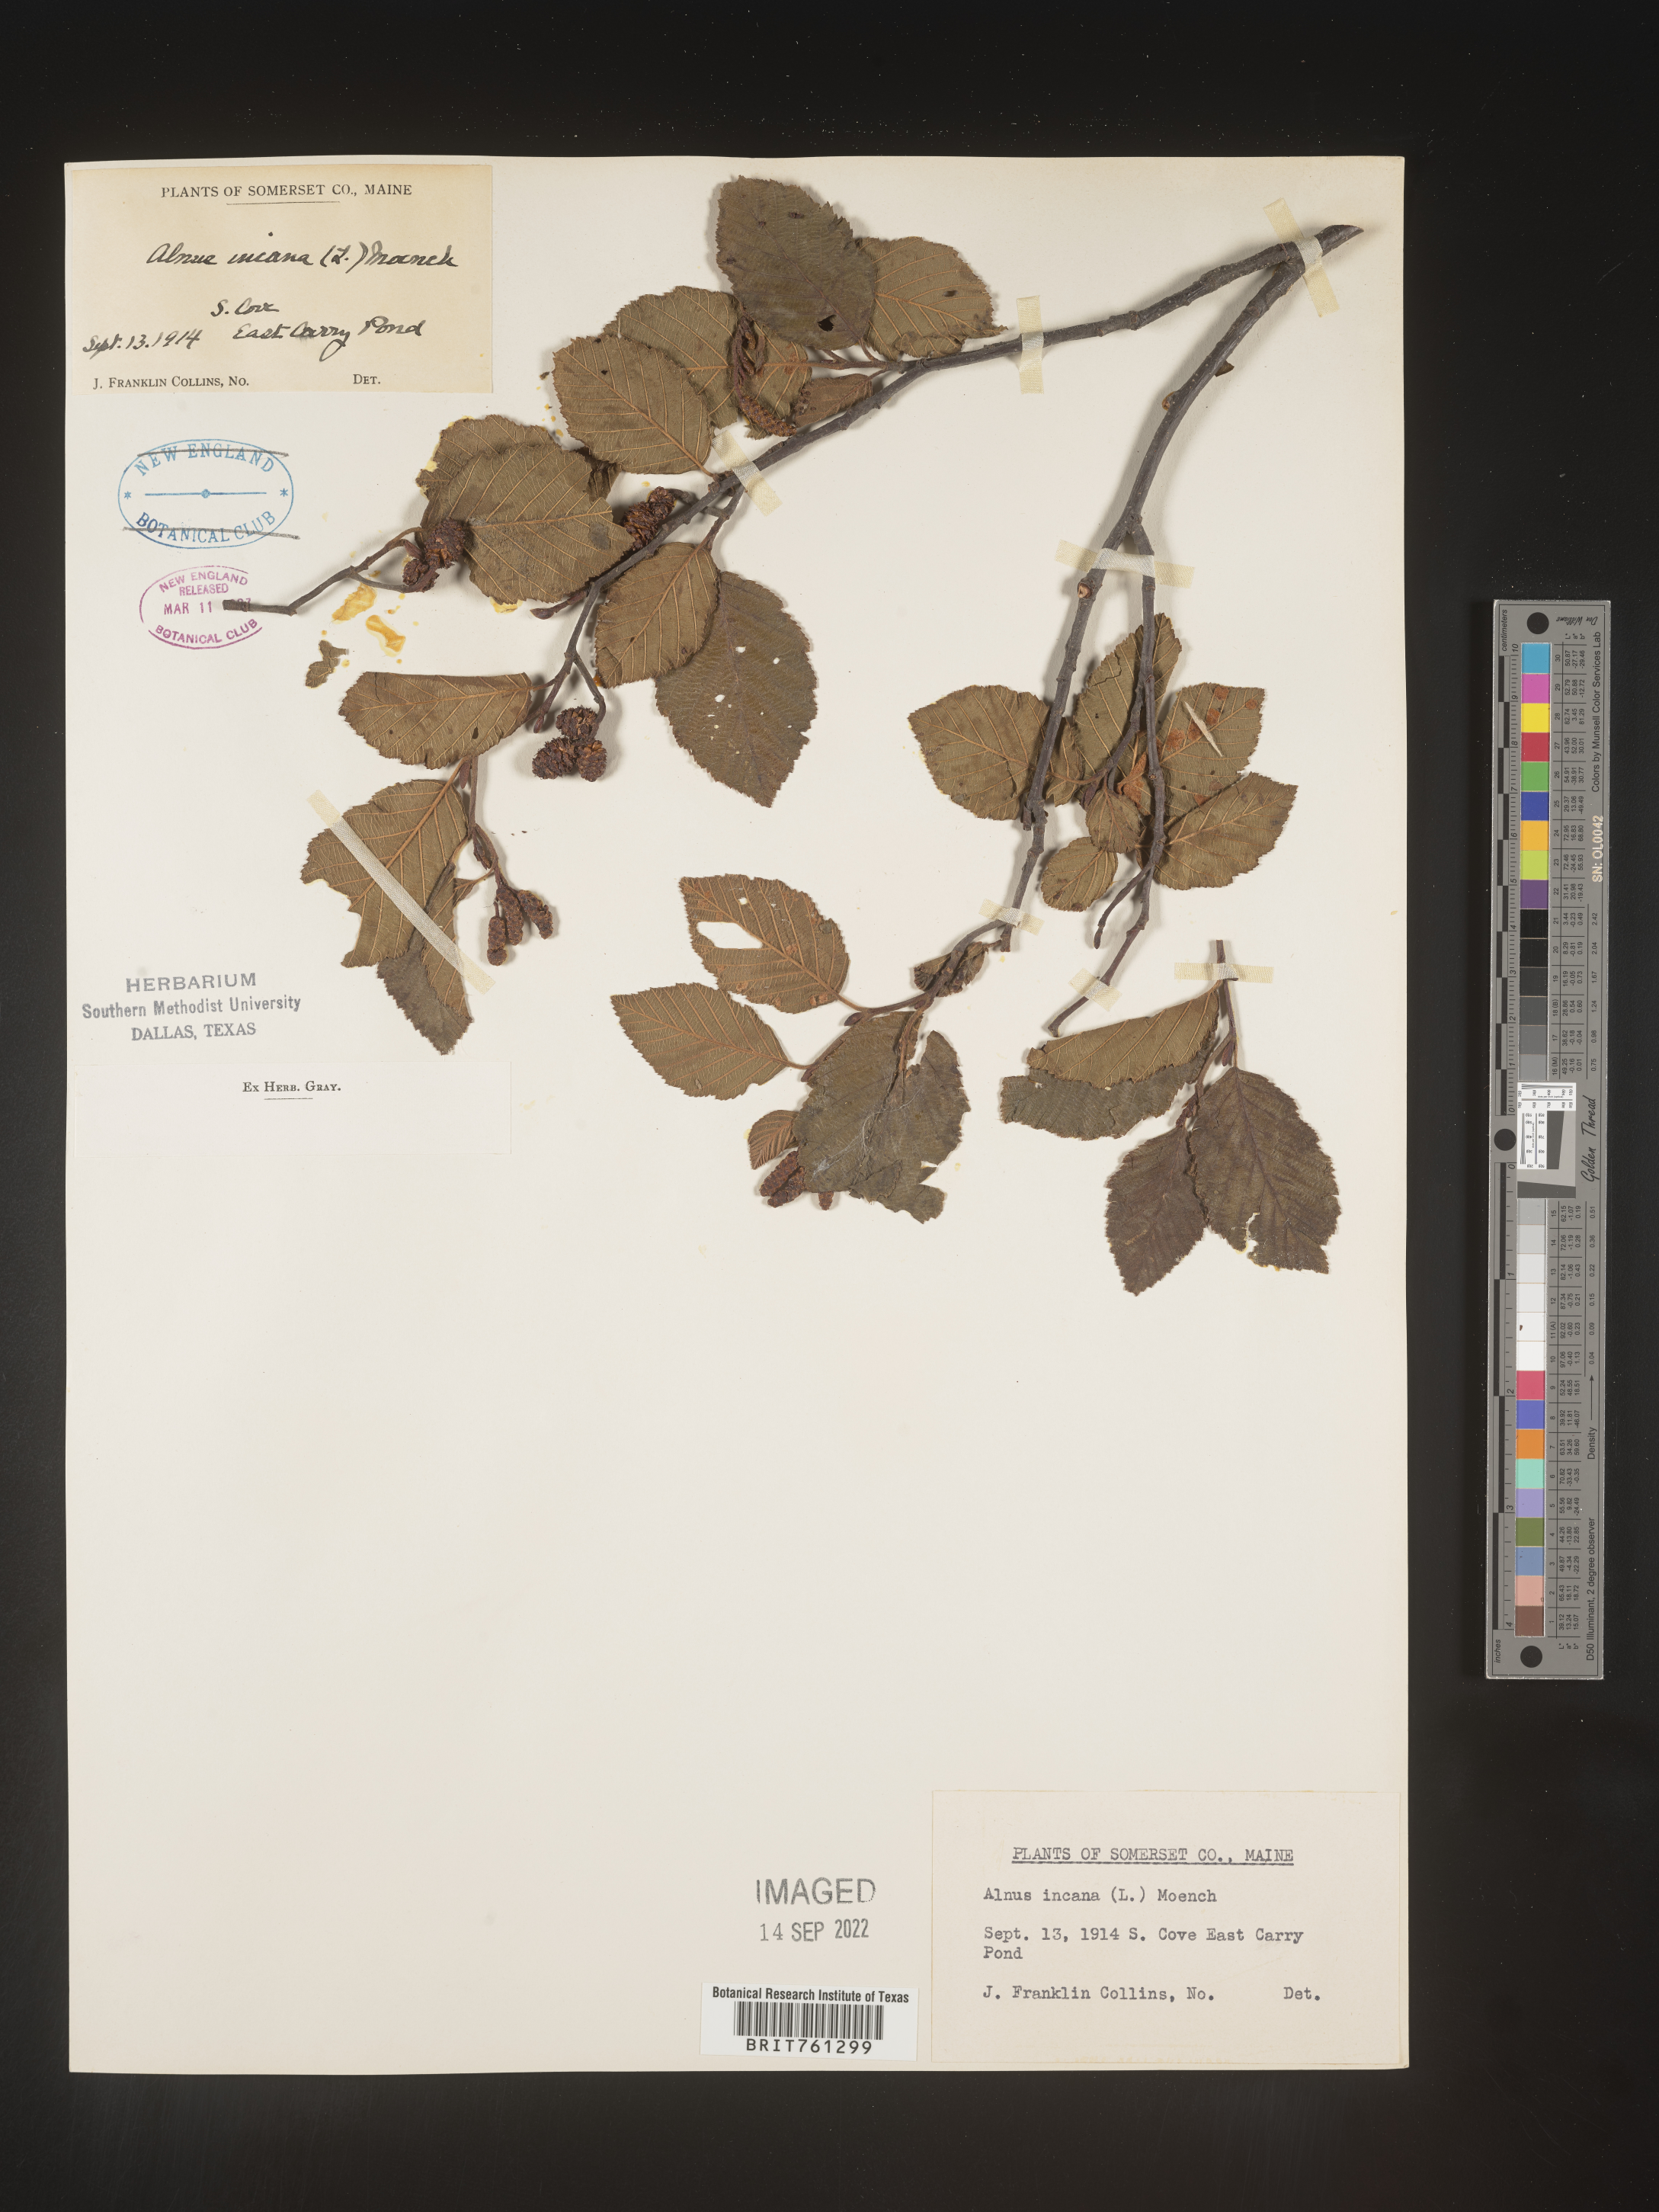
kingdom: Plantae
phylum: Tracheophyta
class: Magnoliopsida
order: Fagales
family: Betulaceae
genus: Alnus
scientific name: Alnus incana
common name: Grey alder
